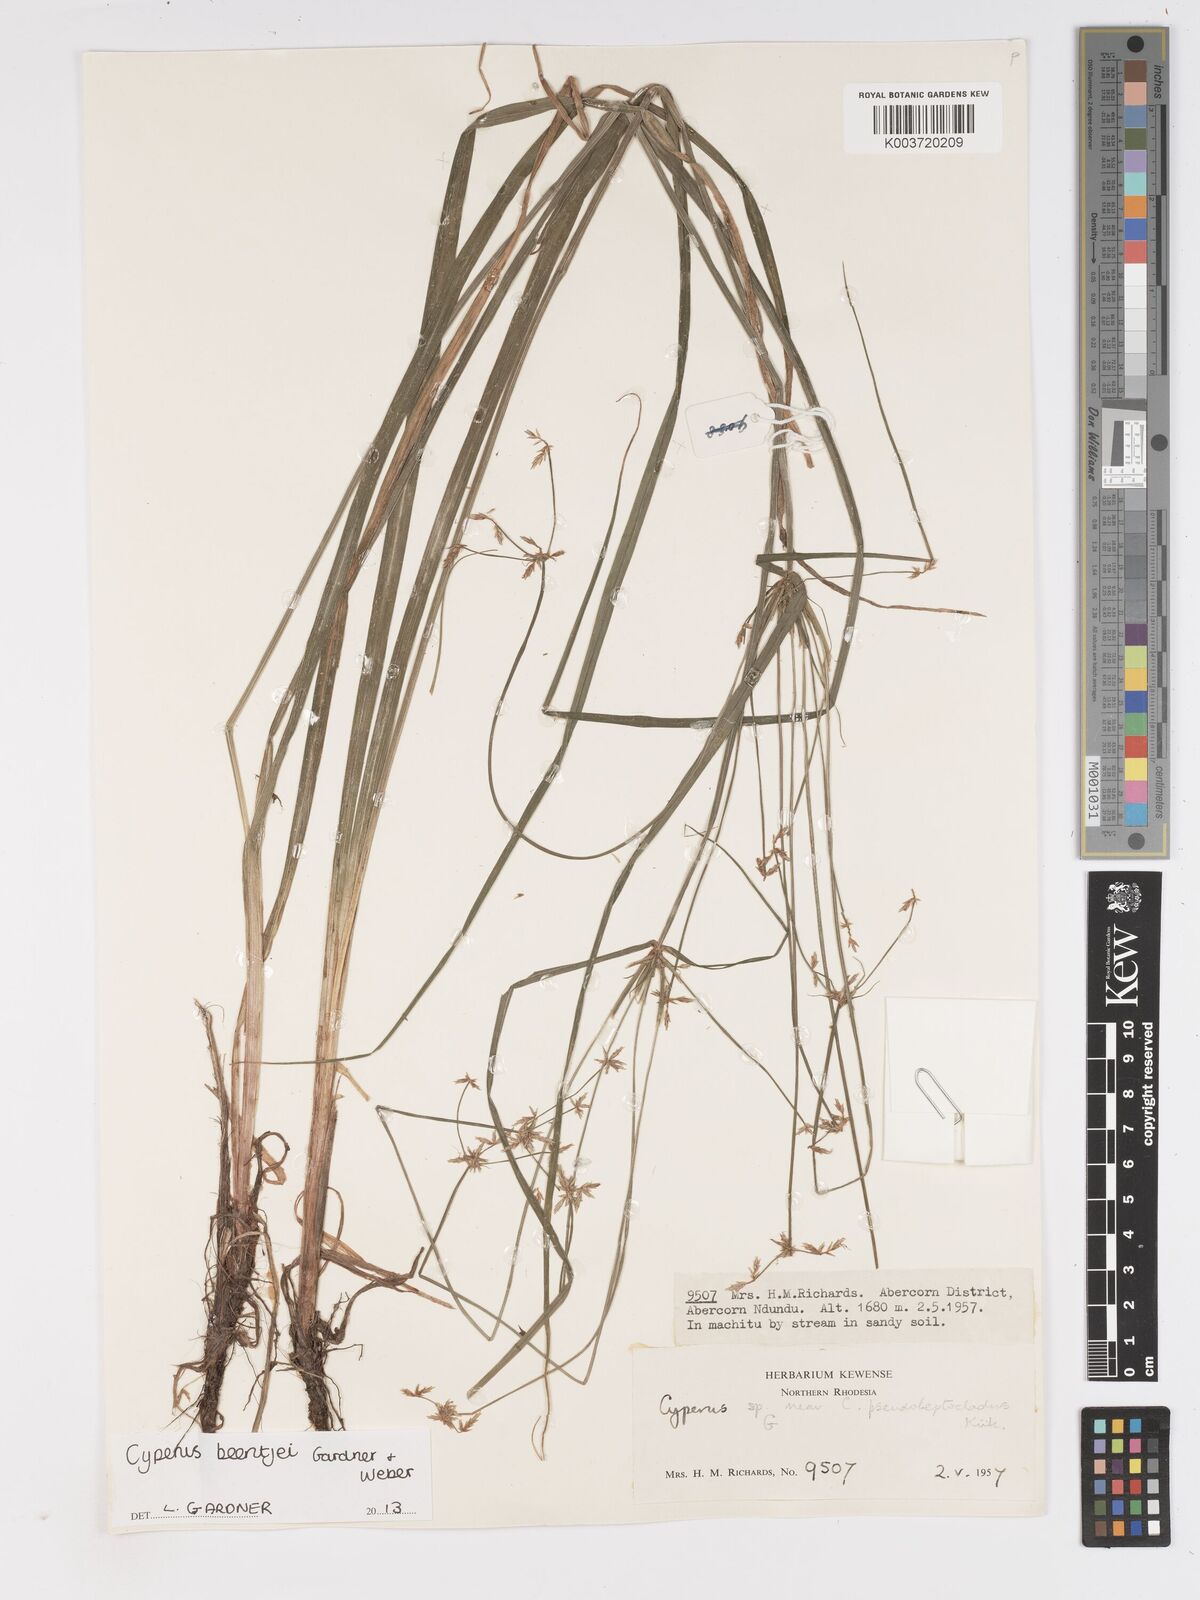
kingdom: Plantae
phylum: Tracheophyta
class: Liliopsida
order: Poales
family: Cyperaceae
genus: Cyperus
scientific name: Cyperus beentjei
